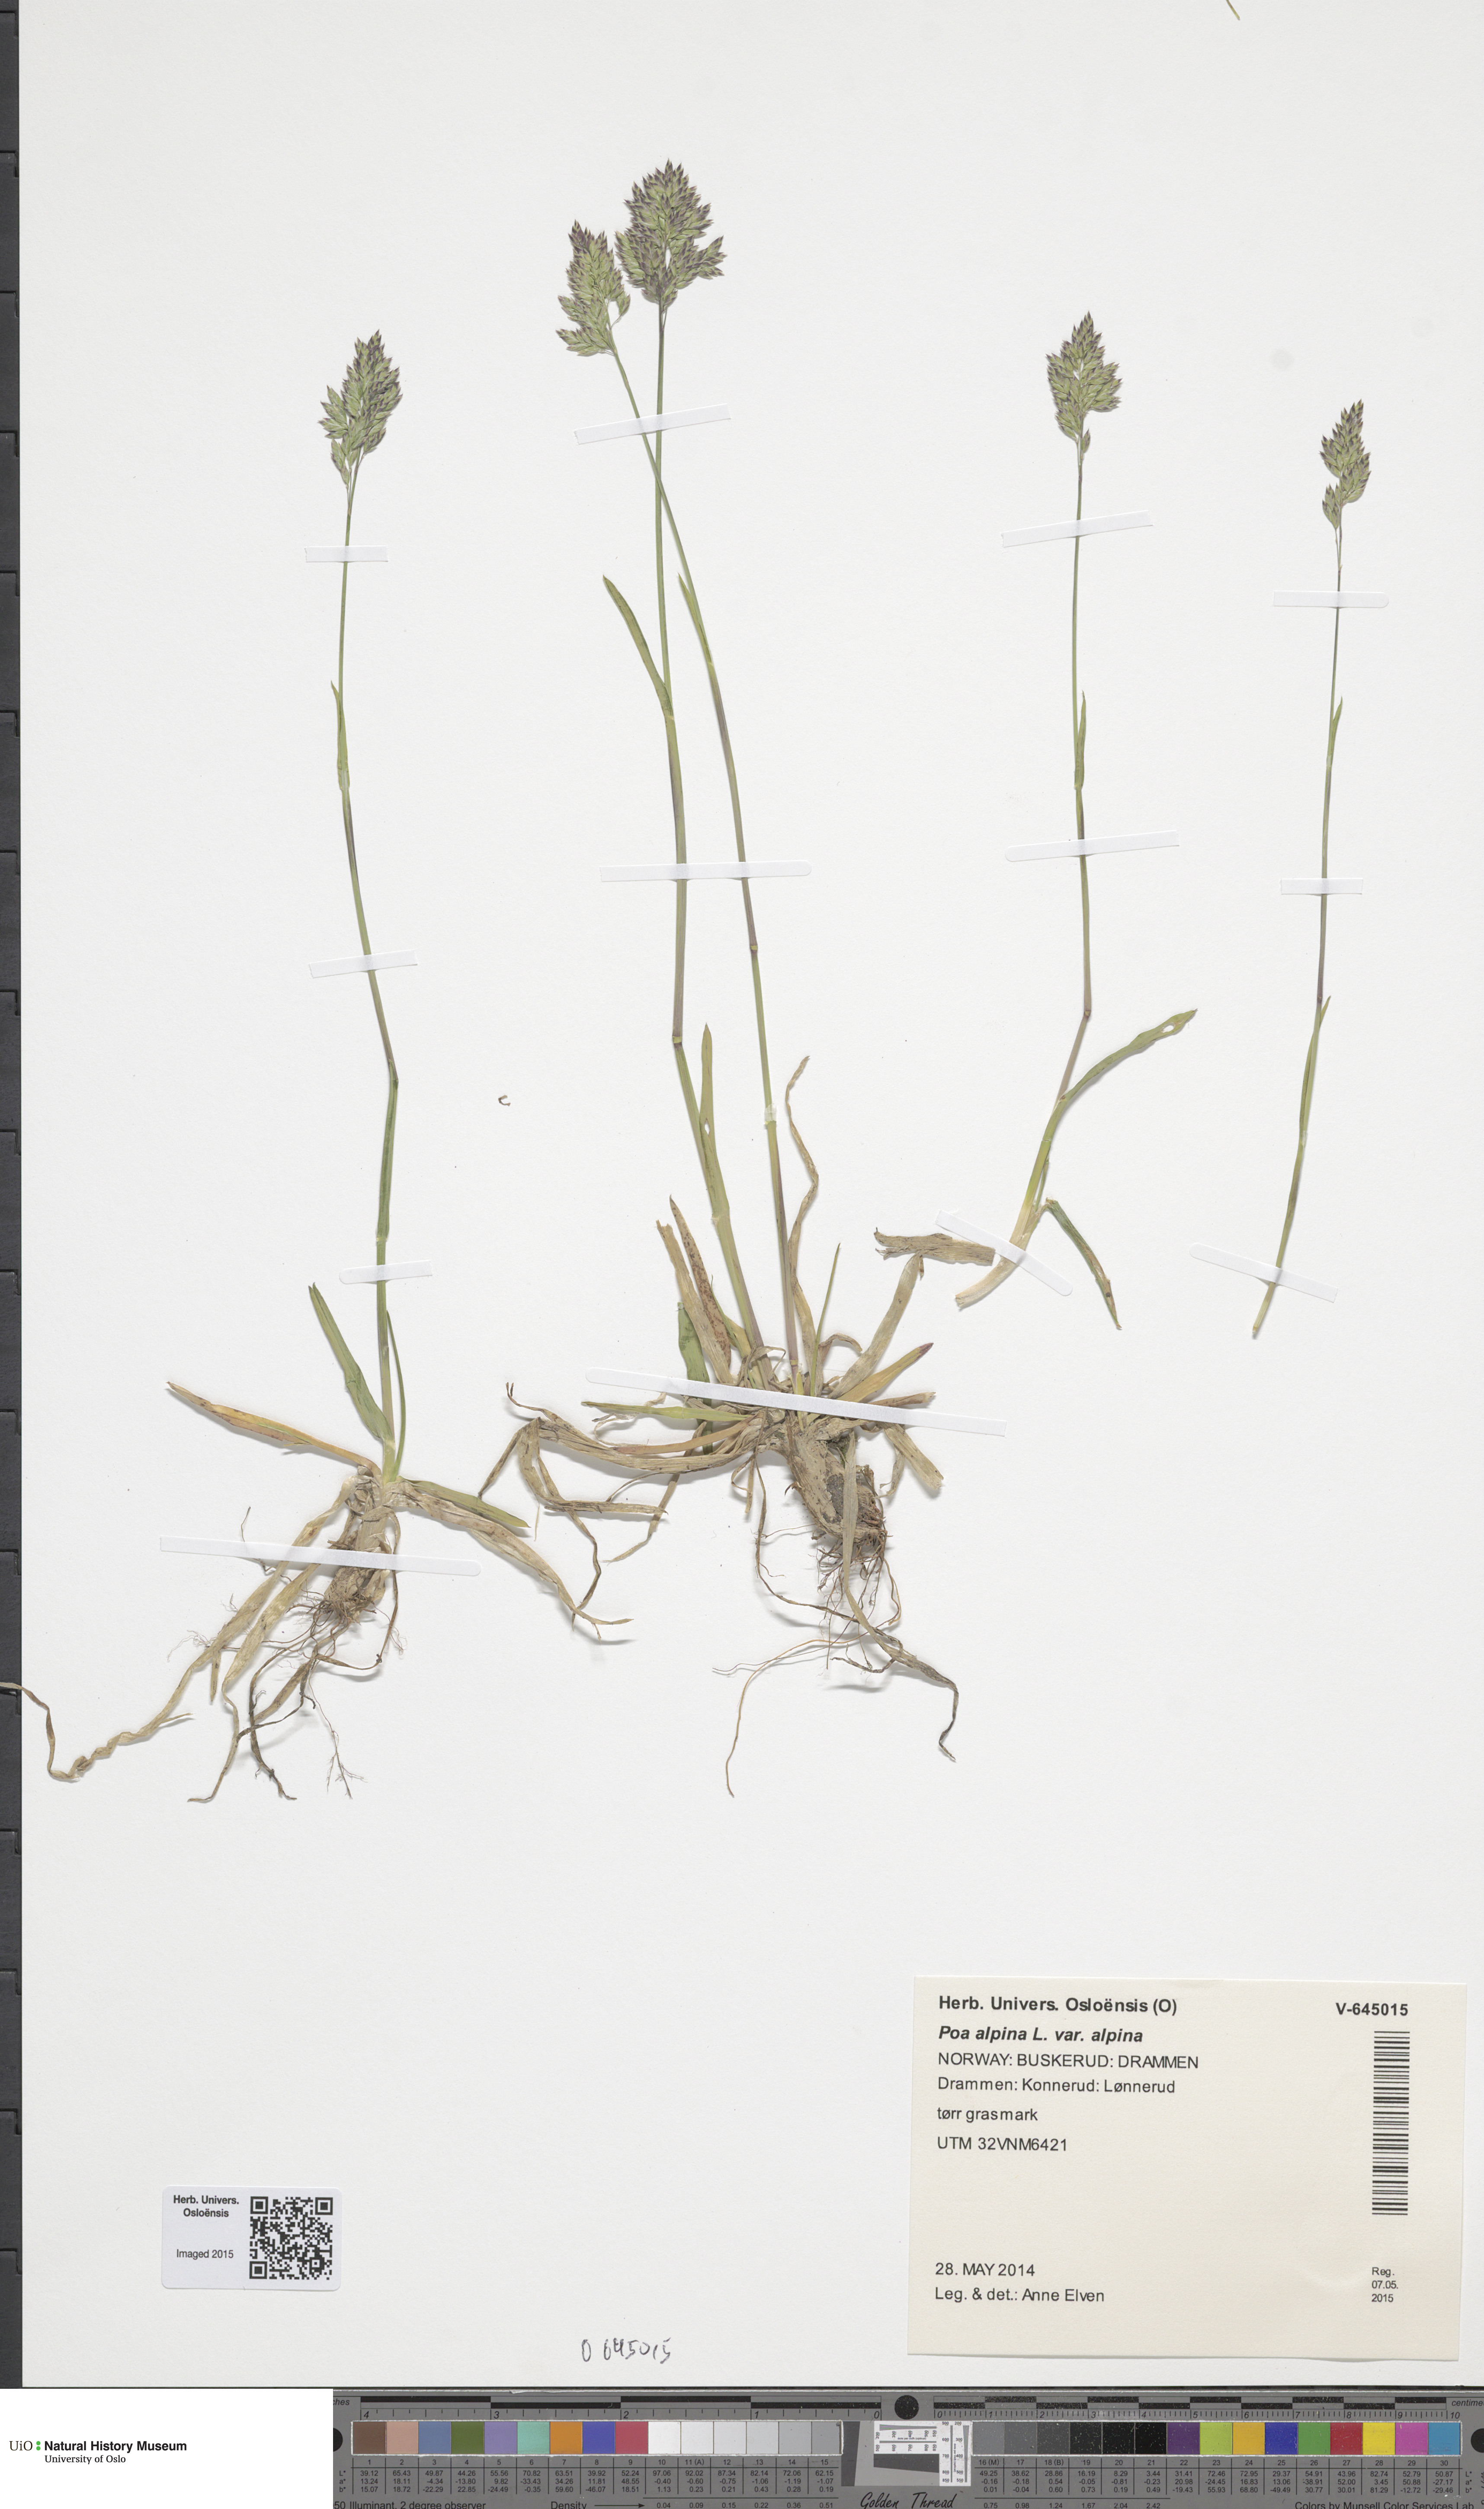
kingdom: Plantae
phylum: Tracheophyta
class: Liliopsida
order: Poales
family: Poaceae
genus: Poa
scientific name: Poa alpina
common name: Alpine bluegrass
